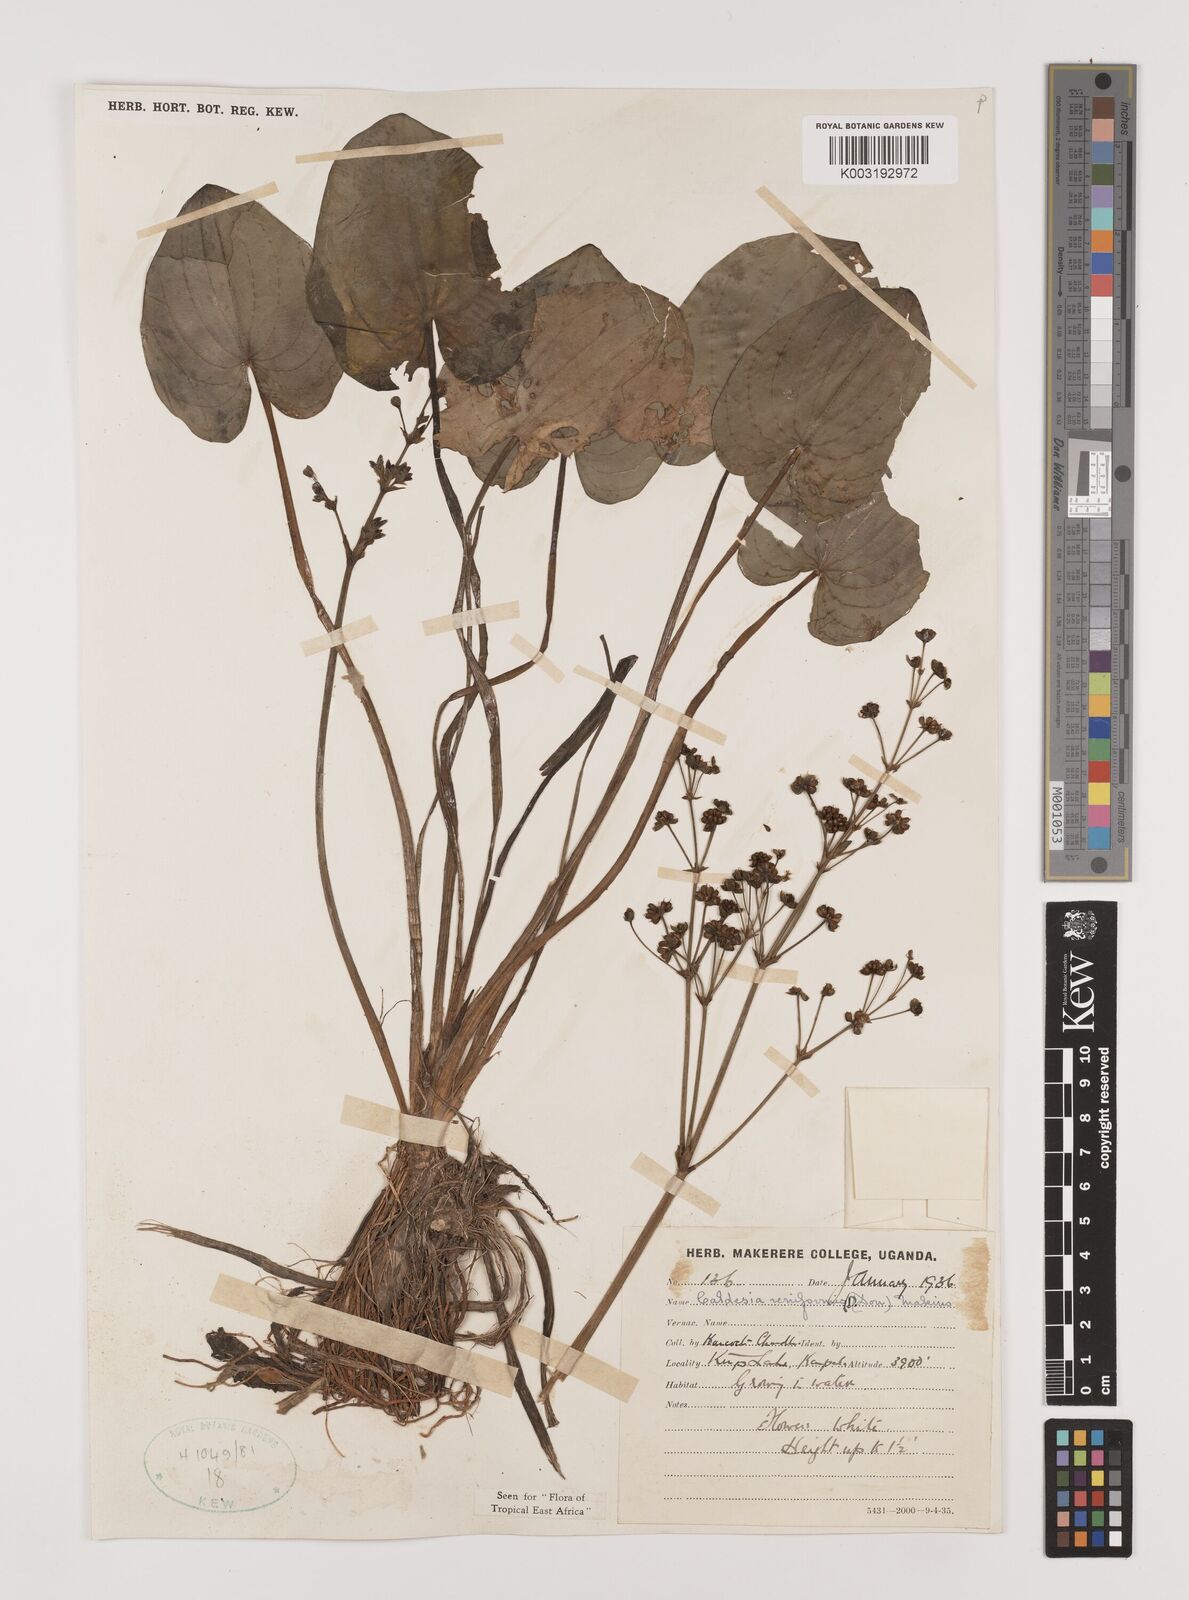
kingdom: Plantae
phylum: Tracheophyta
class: Liliopsida
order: Alismatales
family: Alismataceae
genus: Caldesia
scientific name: Caldesia parnassifolia
